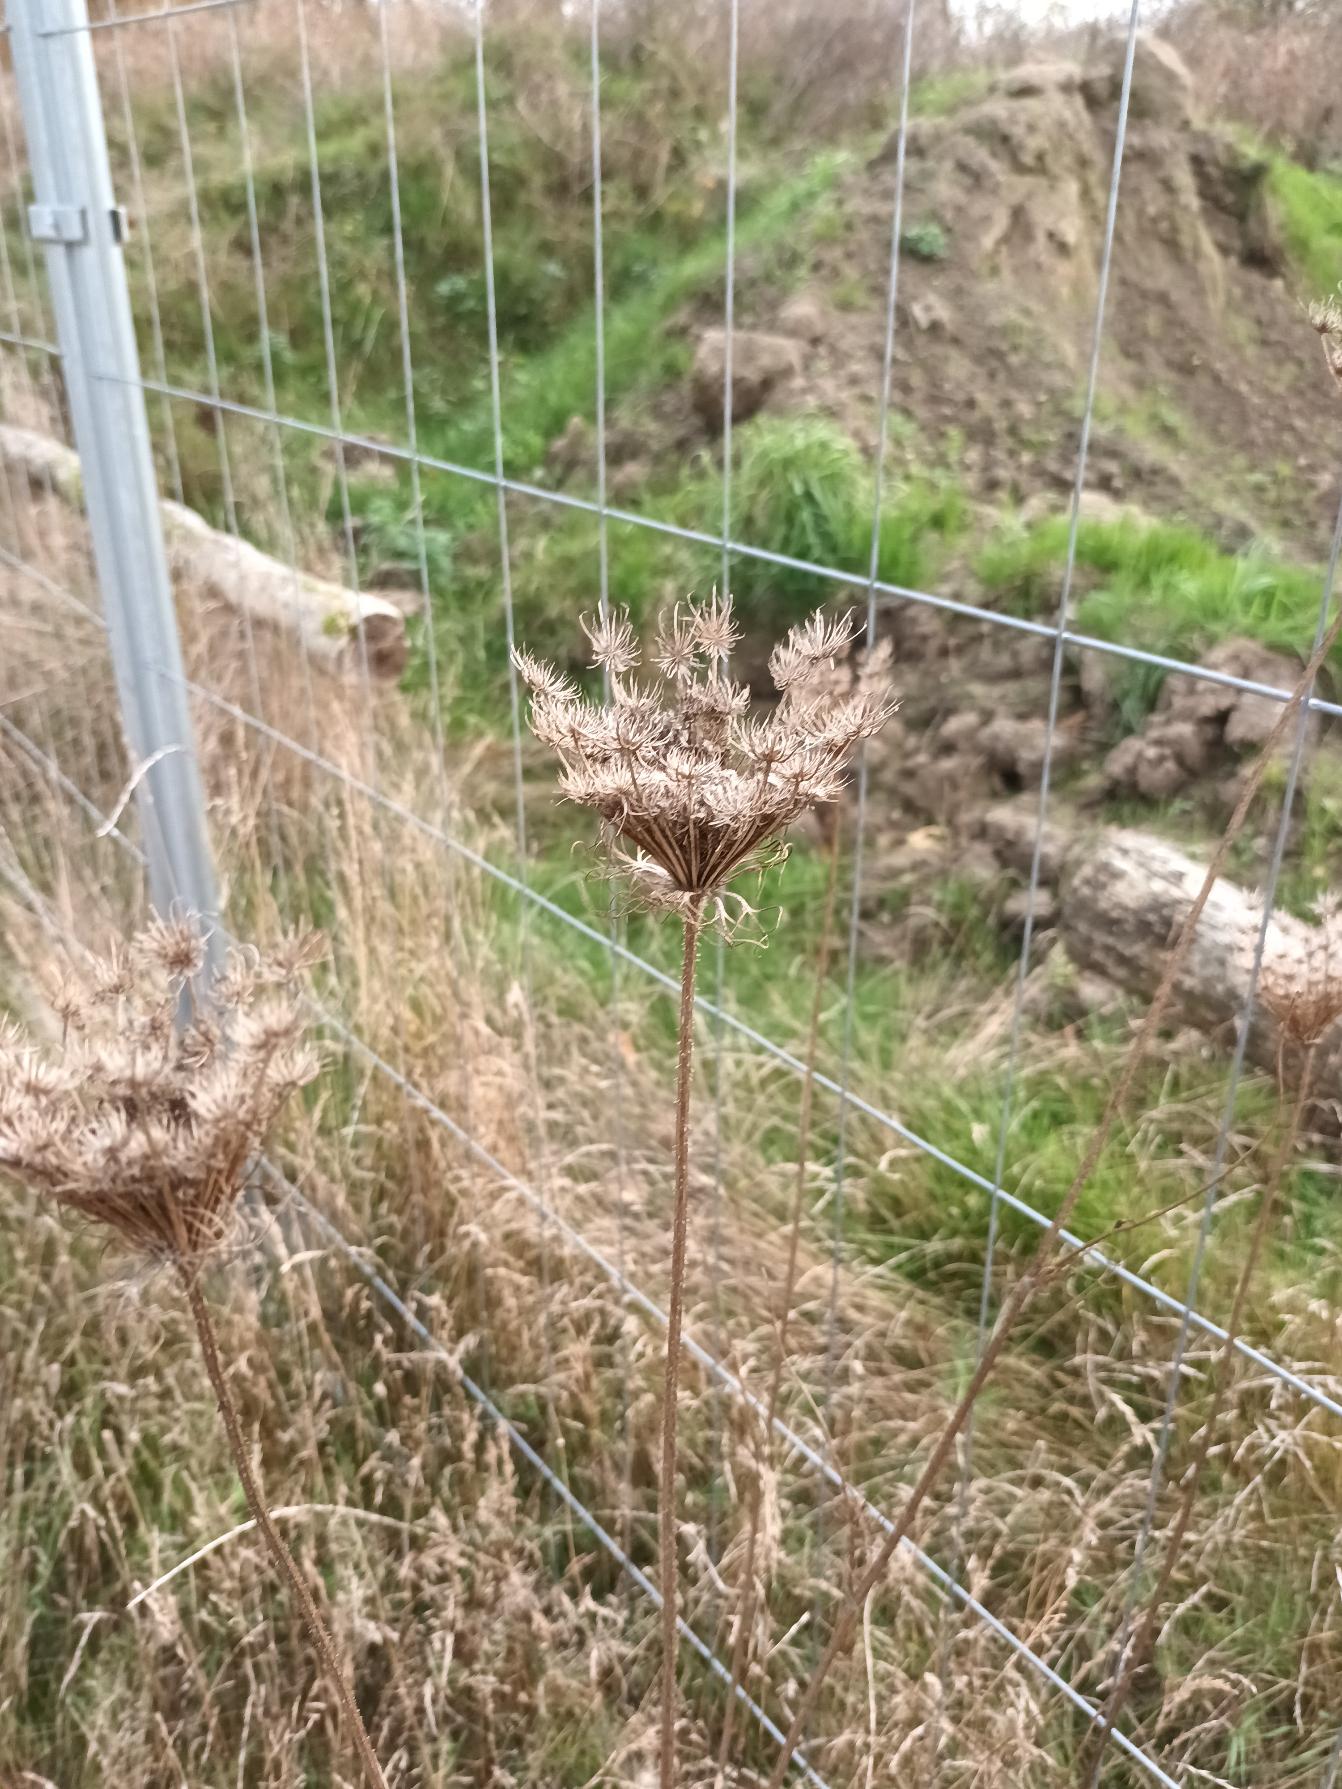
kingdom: Plantae
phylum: Tracheophyta
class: Magnoliopsida
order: Apiales
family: Apiaceae
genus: Daucus
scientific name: Daucus carota
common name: Gulerod
